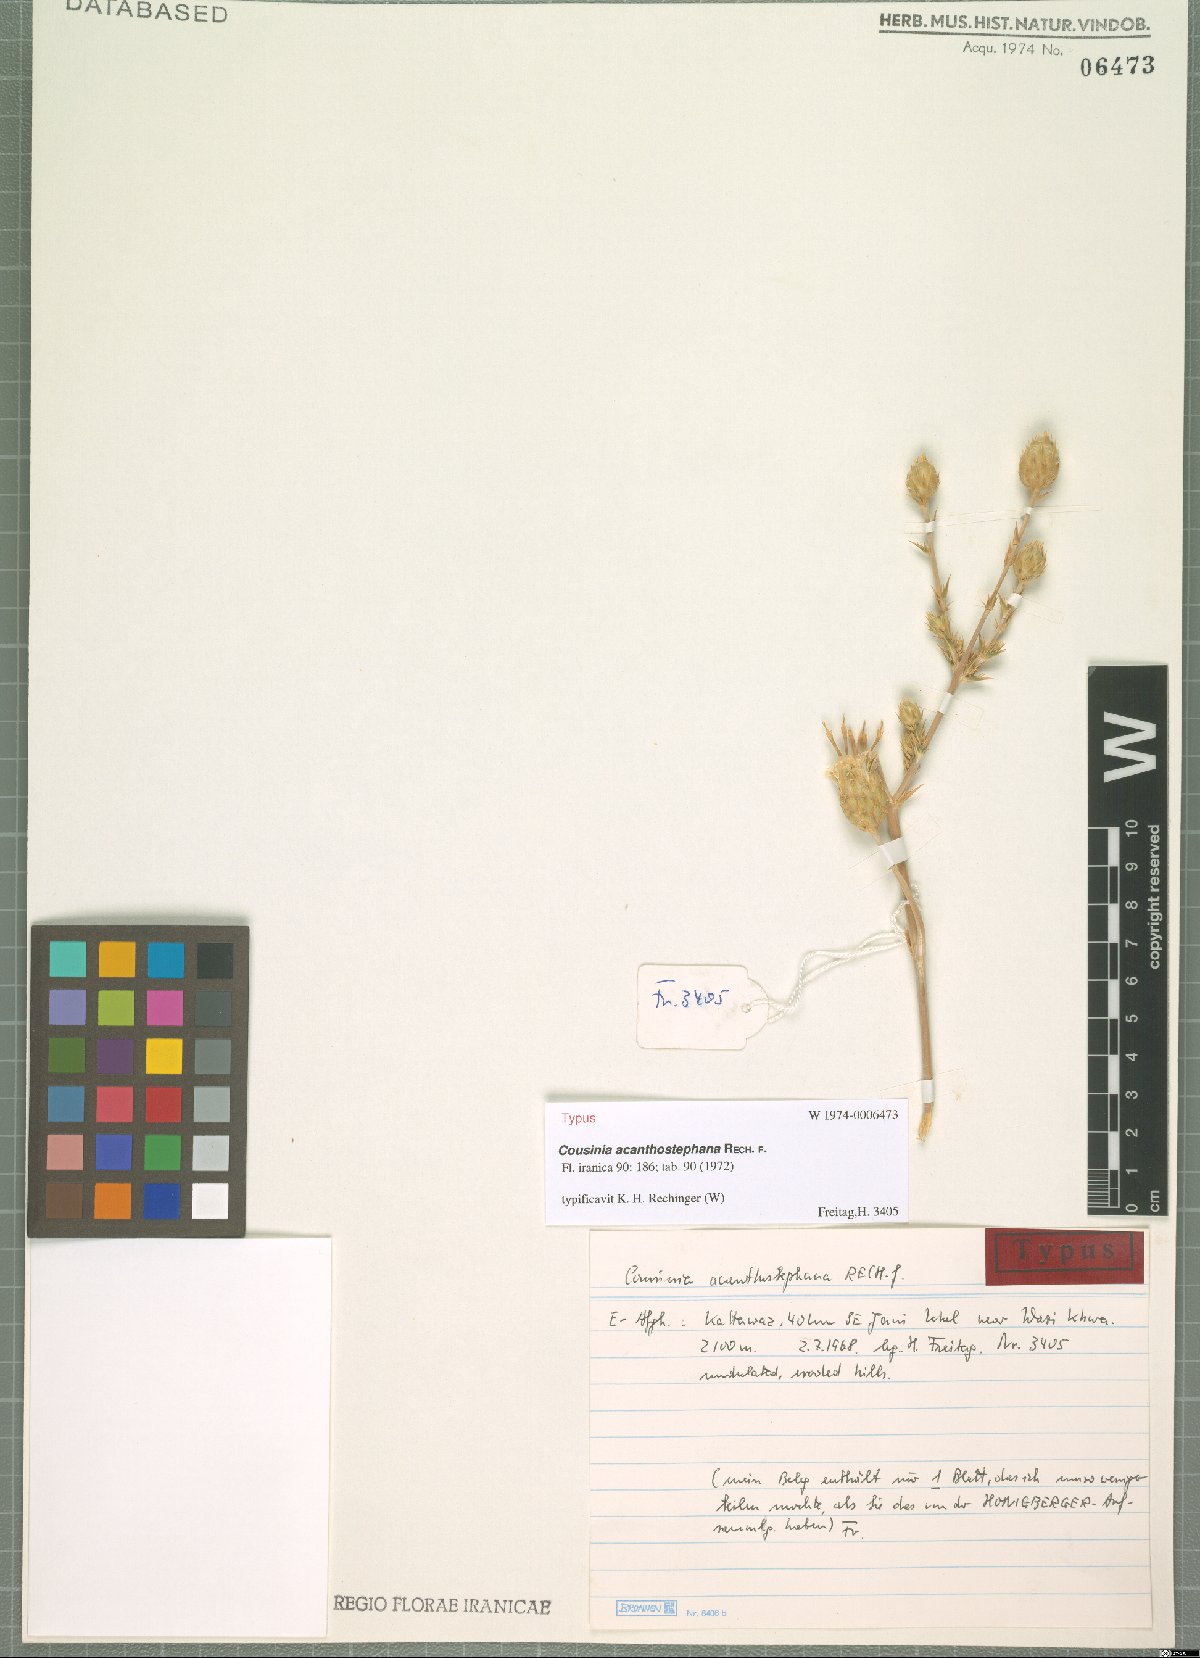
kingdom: Plantae
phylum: Tracheophyta
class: Magnoliopsida
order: Asterales
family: Asteraceae
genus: Cousinia
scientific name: Cousinia acanthostephana
